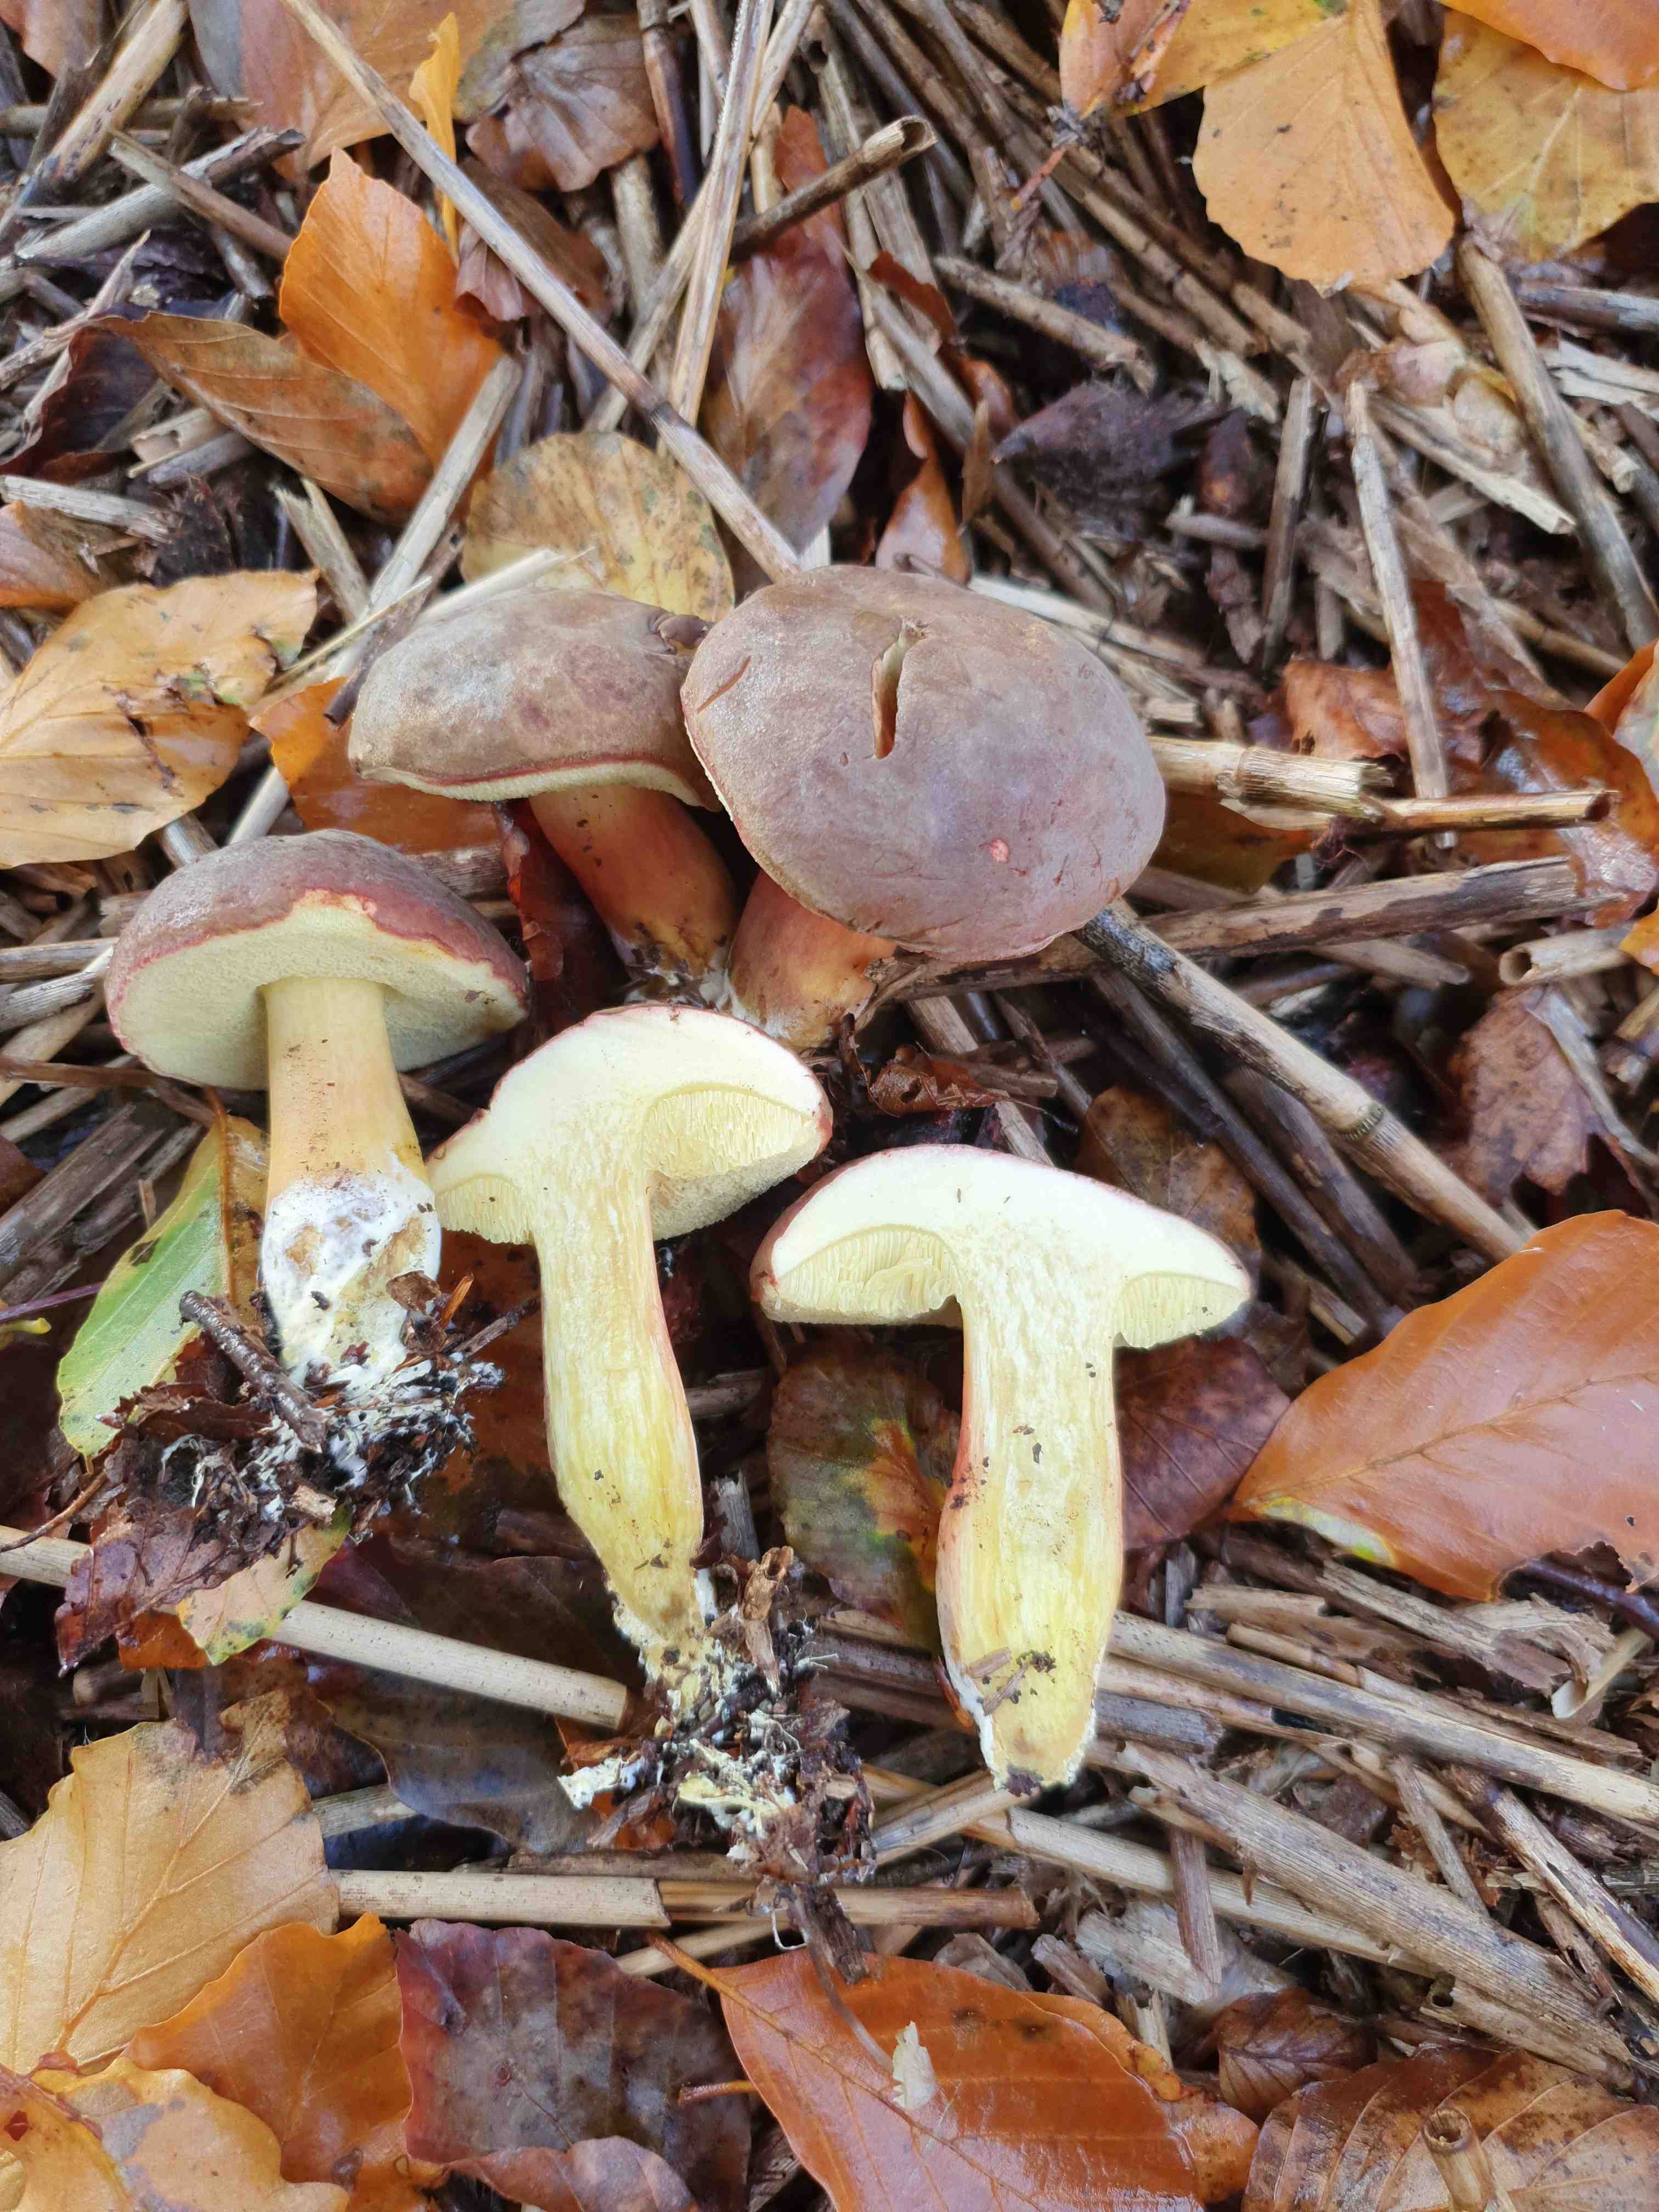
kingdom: Fungi
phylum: Basidiomycota
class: Agaricomycetes
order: Boletales
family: Boletaceae
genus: Xerocomellus
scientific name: Xerocomellus pruinatus
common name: dugget rørhat
